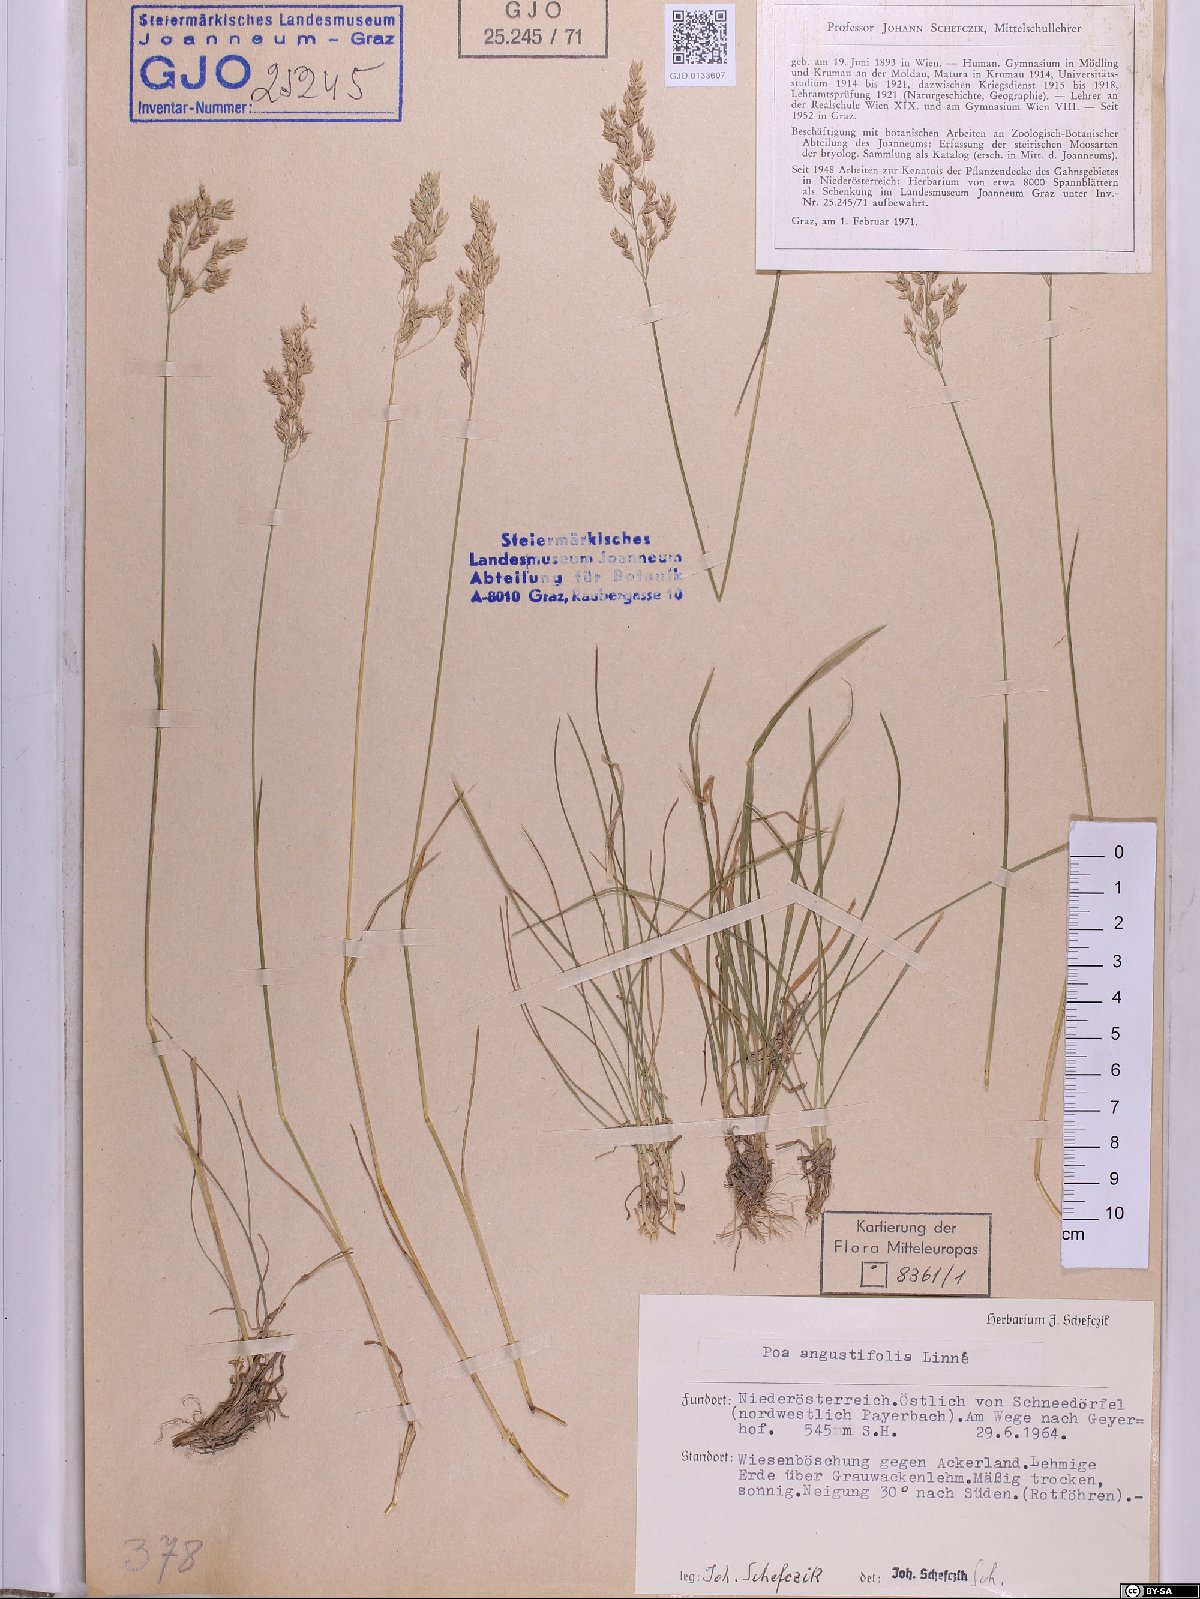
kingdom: Plantae
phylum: Tracheophyta
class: Liliopsida
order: Poales
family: Poaceae
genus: Poa
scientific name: Poa angustifolia
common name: Narrow-leaved meadow-grass
